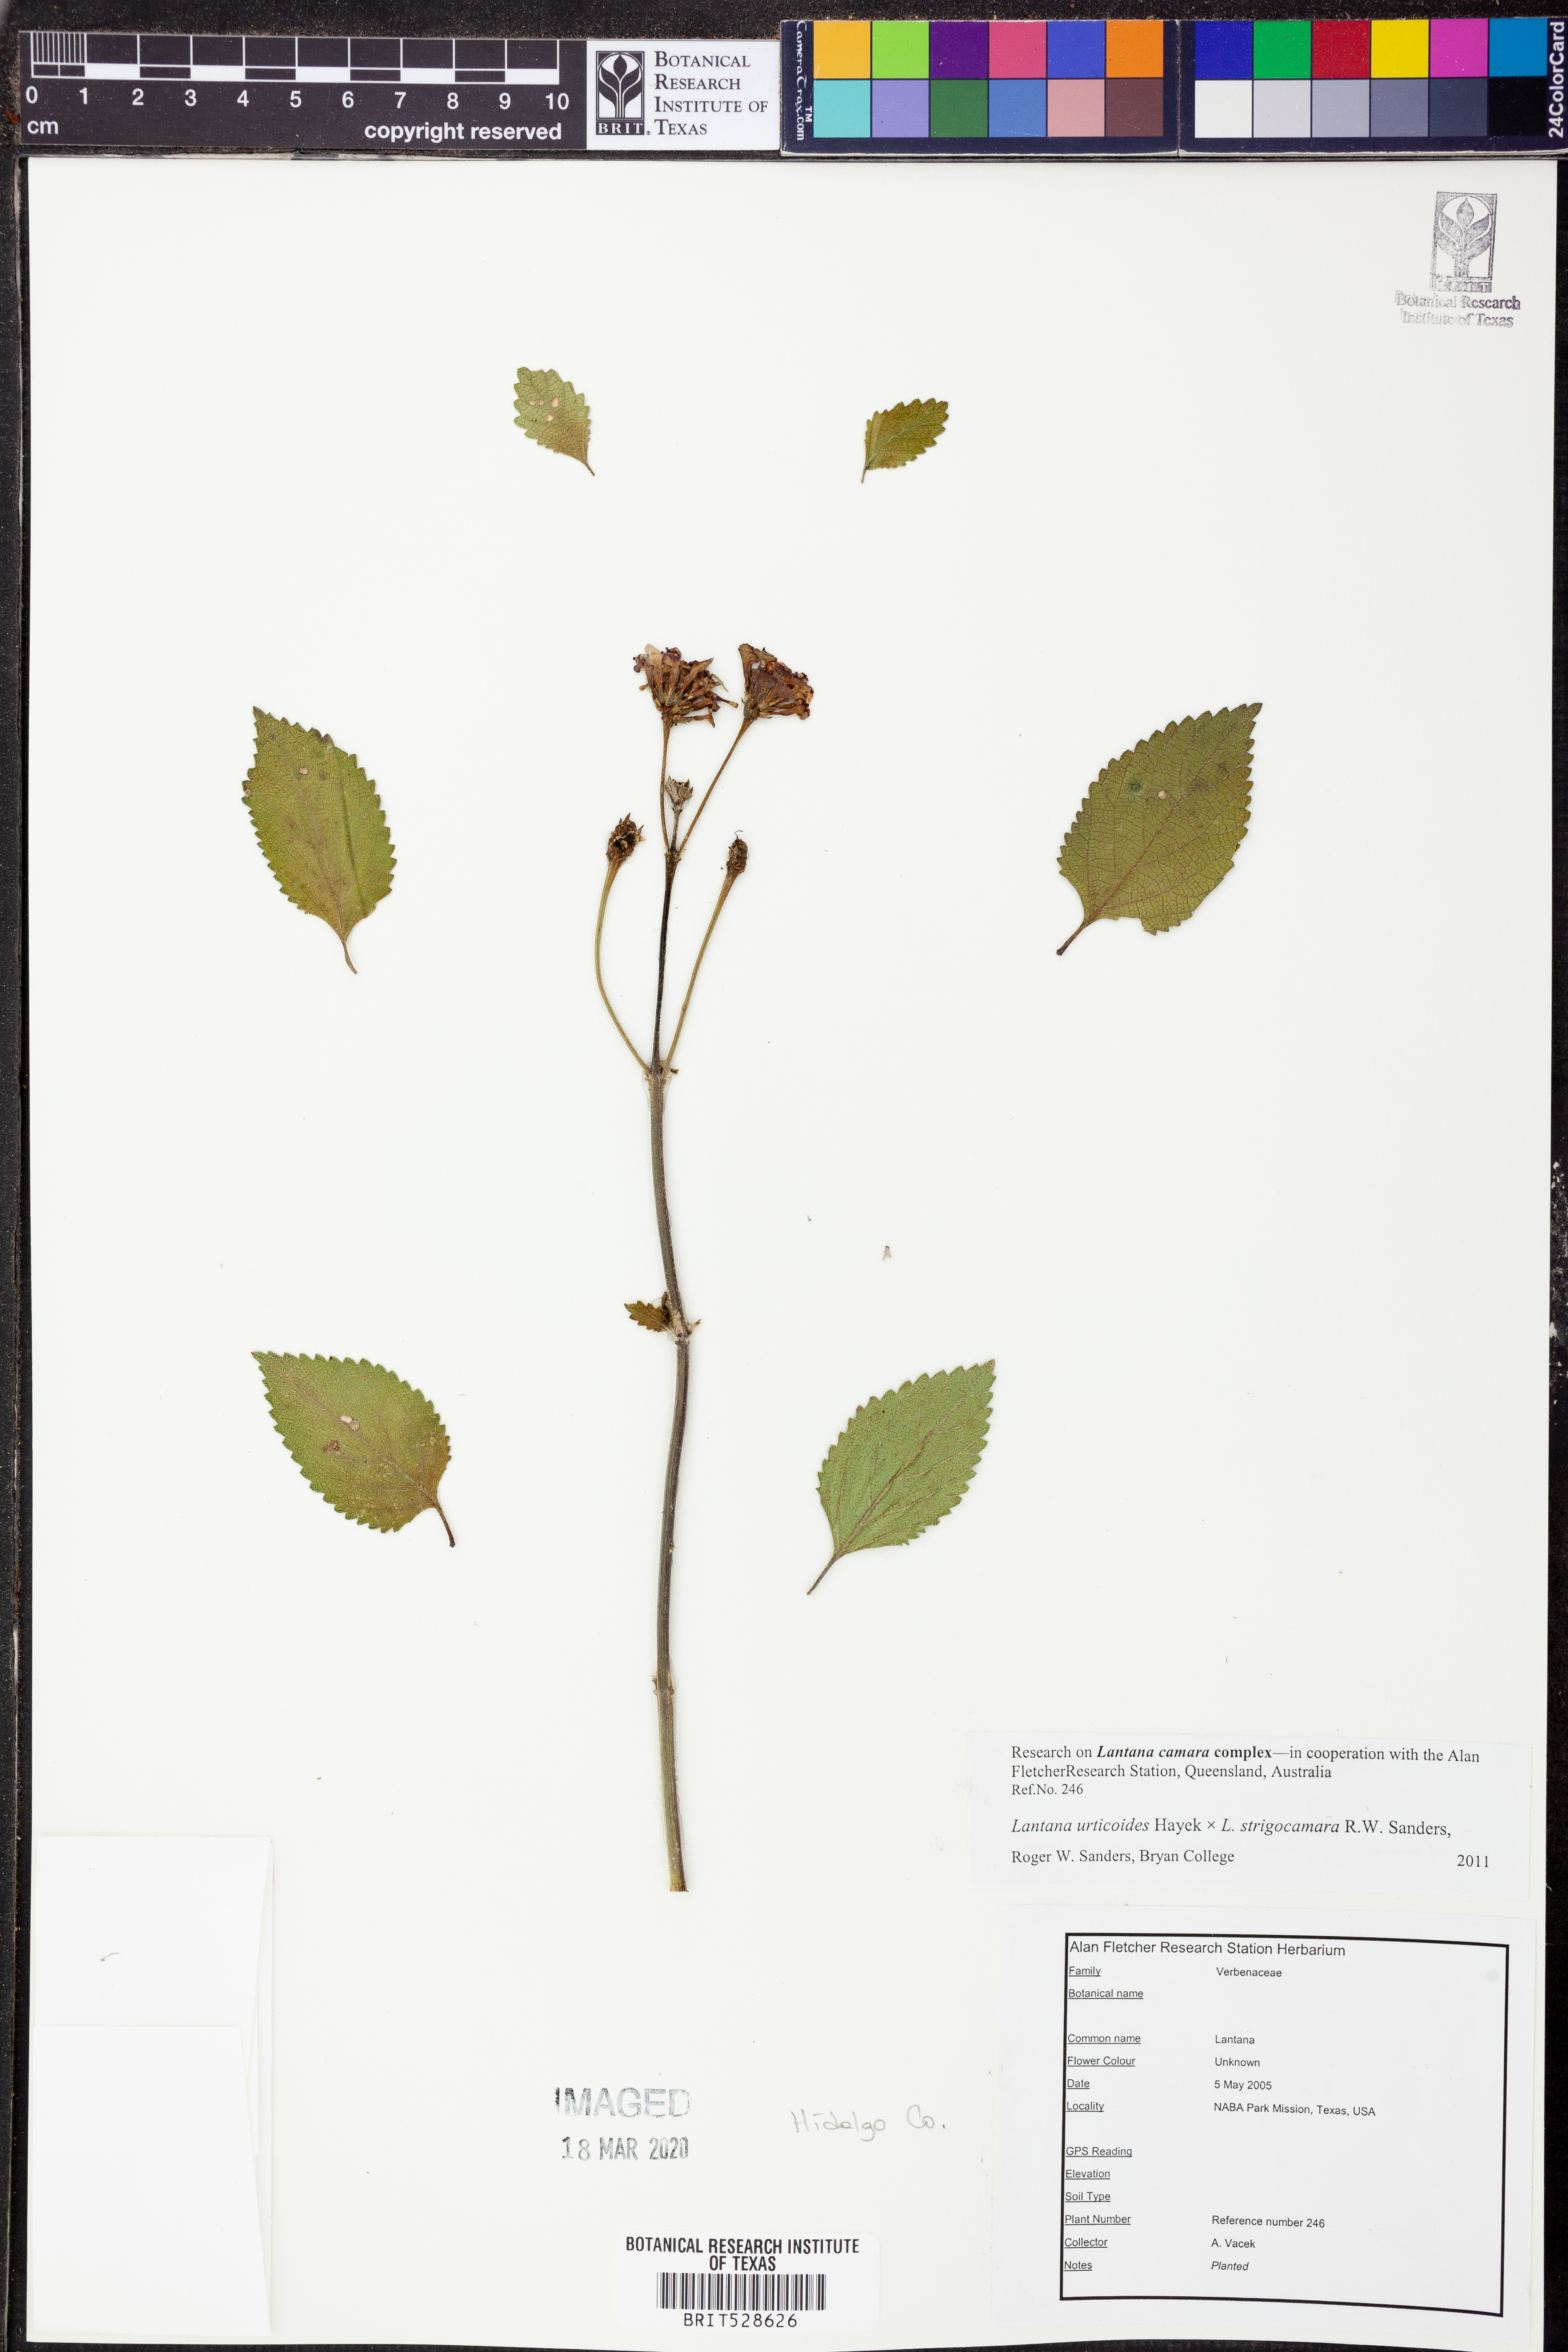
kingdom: Plantae
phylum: Tracheophyta
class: Magnoliopsida
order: Lamiales
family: Verbenaceae
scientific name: Verbenaceae
